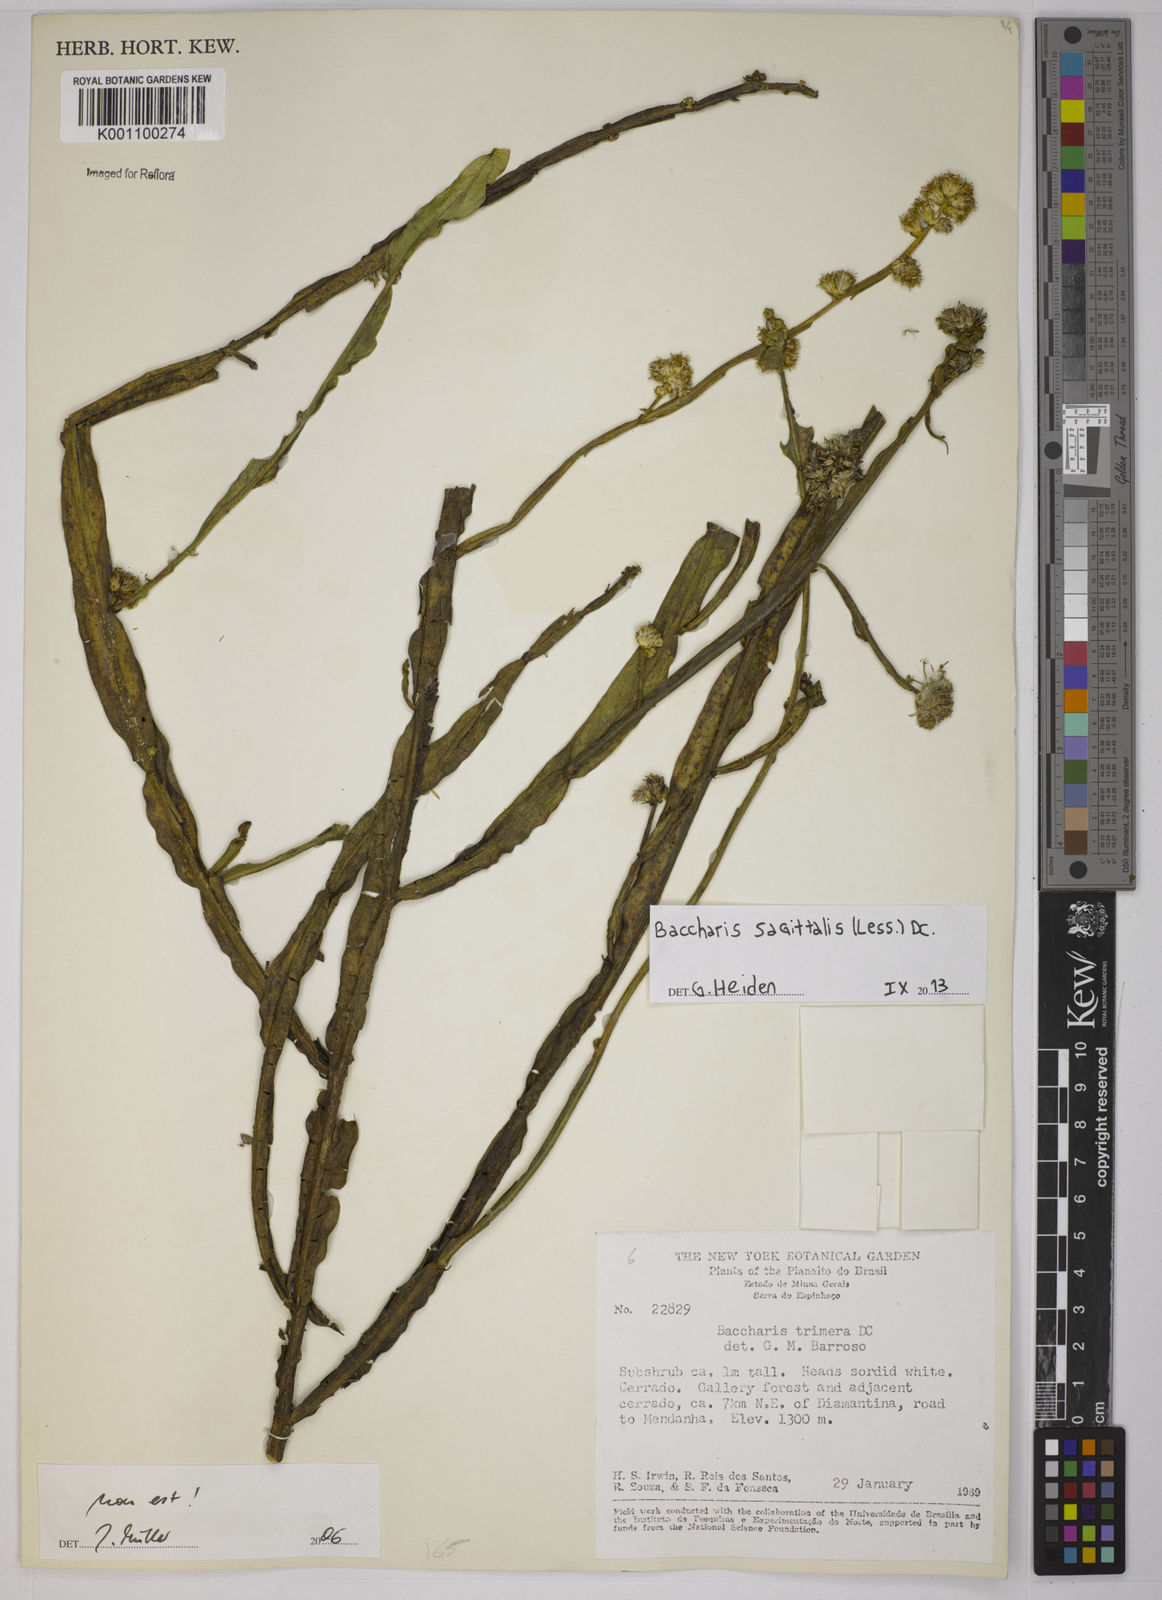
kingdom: Plantae
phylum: Tracheophyta
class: Magnoliopsida
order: Asterales
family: Asteraceae
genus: Baccharis
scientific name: Baccharis sagittalis
